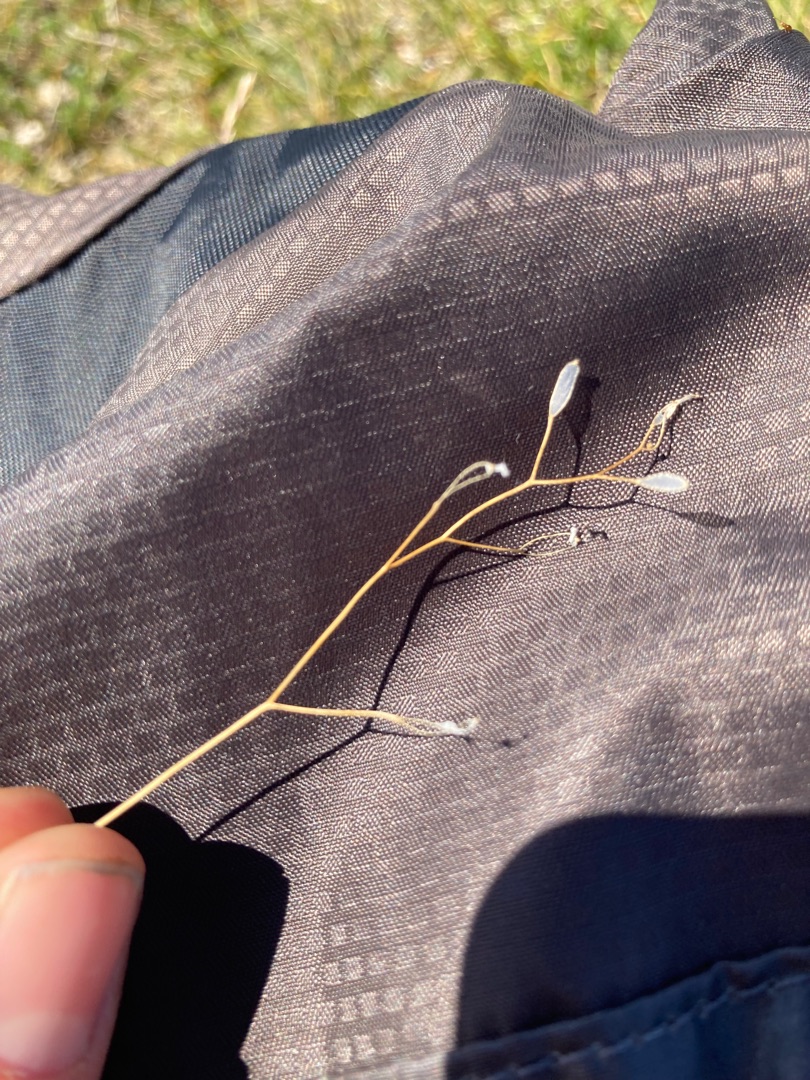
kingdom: Plantae
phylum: Tracheophyta
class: Magnoliopsida
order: Brassicales
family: Brassicaceae
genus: Draba
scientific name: Draba verna
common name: Vår-gæslingeblomst
